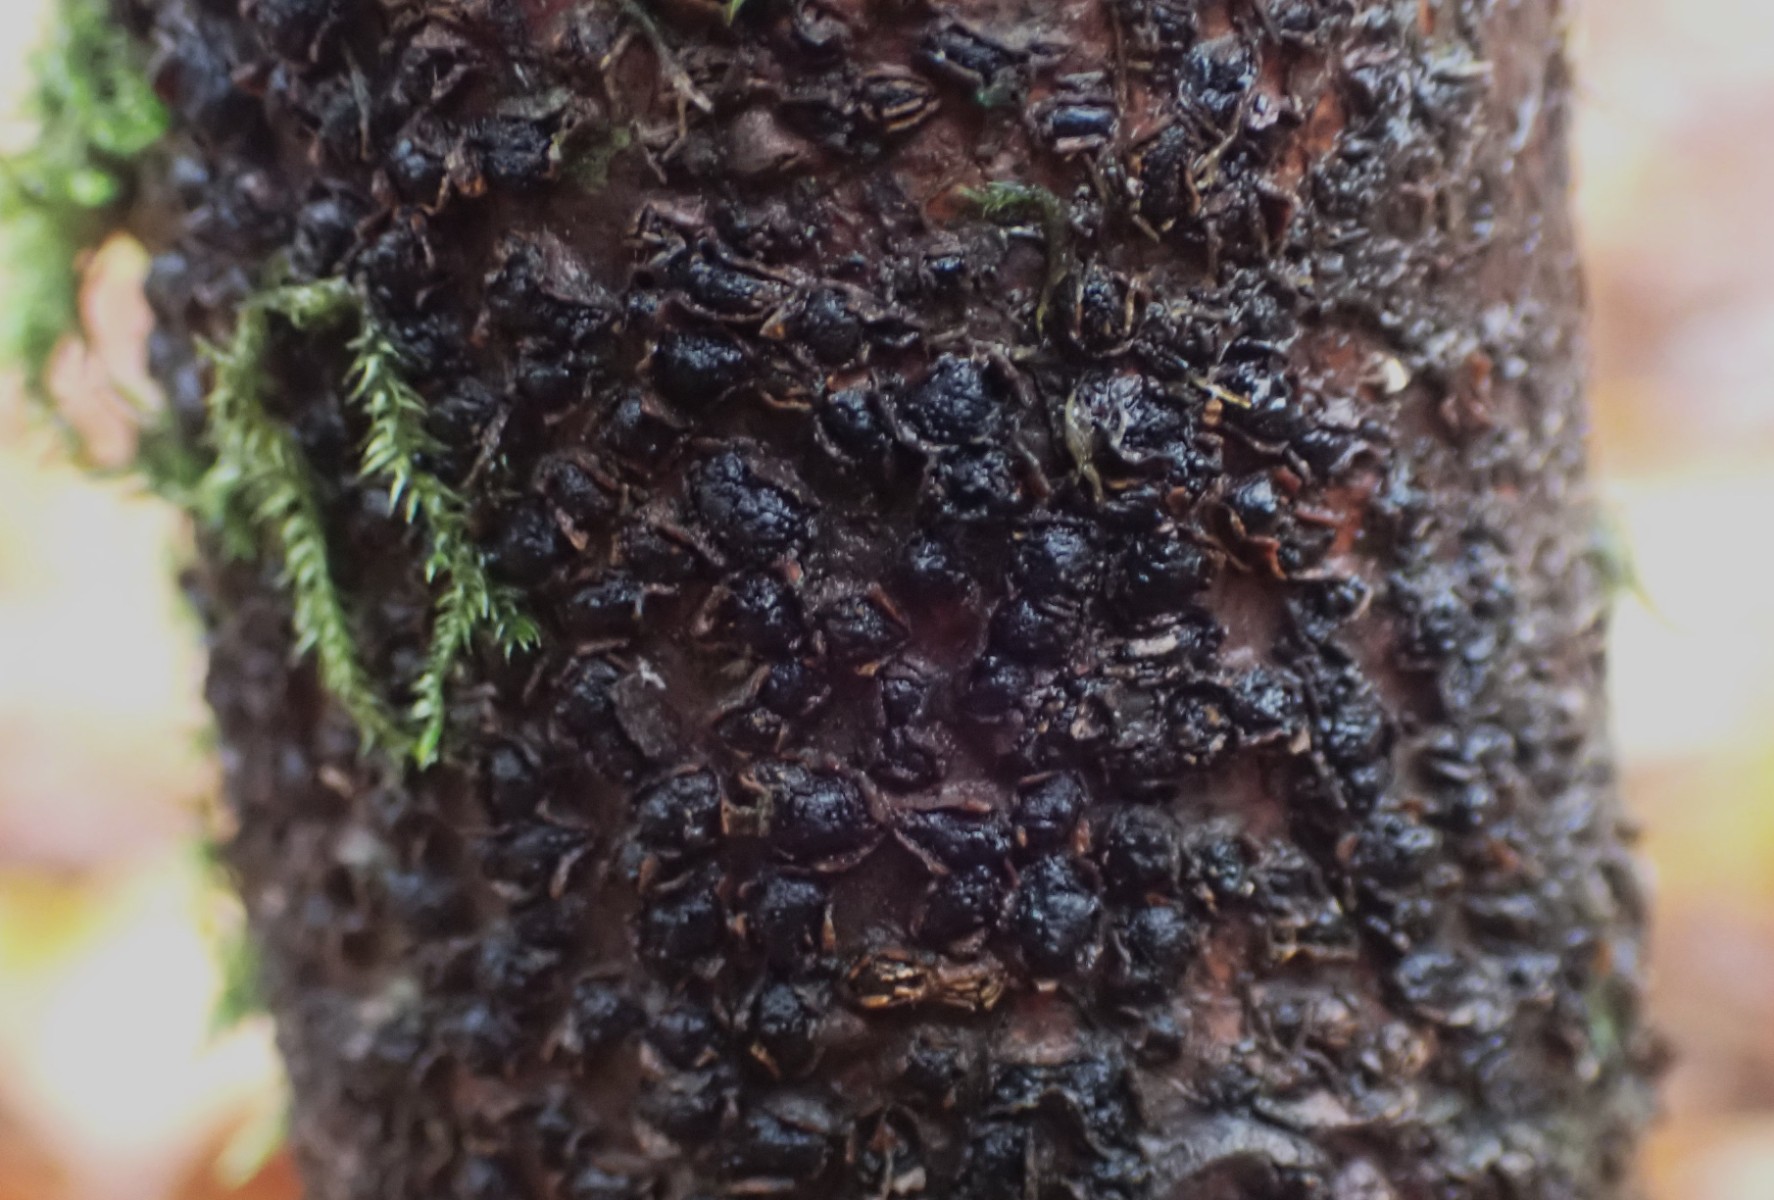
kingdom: Fungi
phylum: Ascomycota
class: Sordariomycetes
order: Xylariales
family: Melogrammataceae
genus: Melogramma
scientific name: Melogramma spiniferum
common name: bøgefod-kulhals
